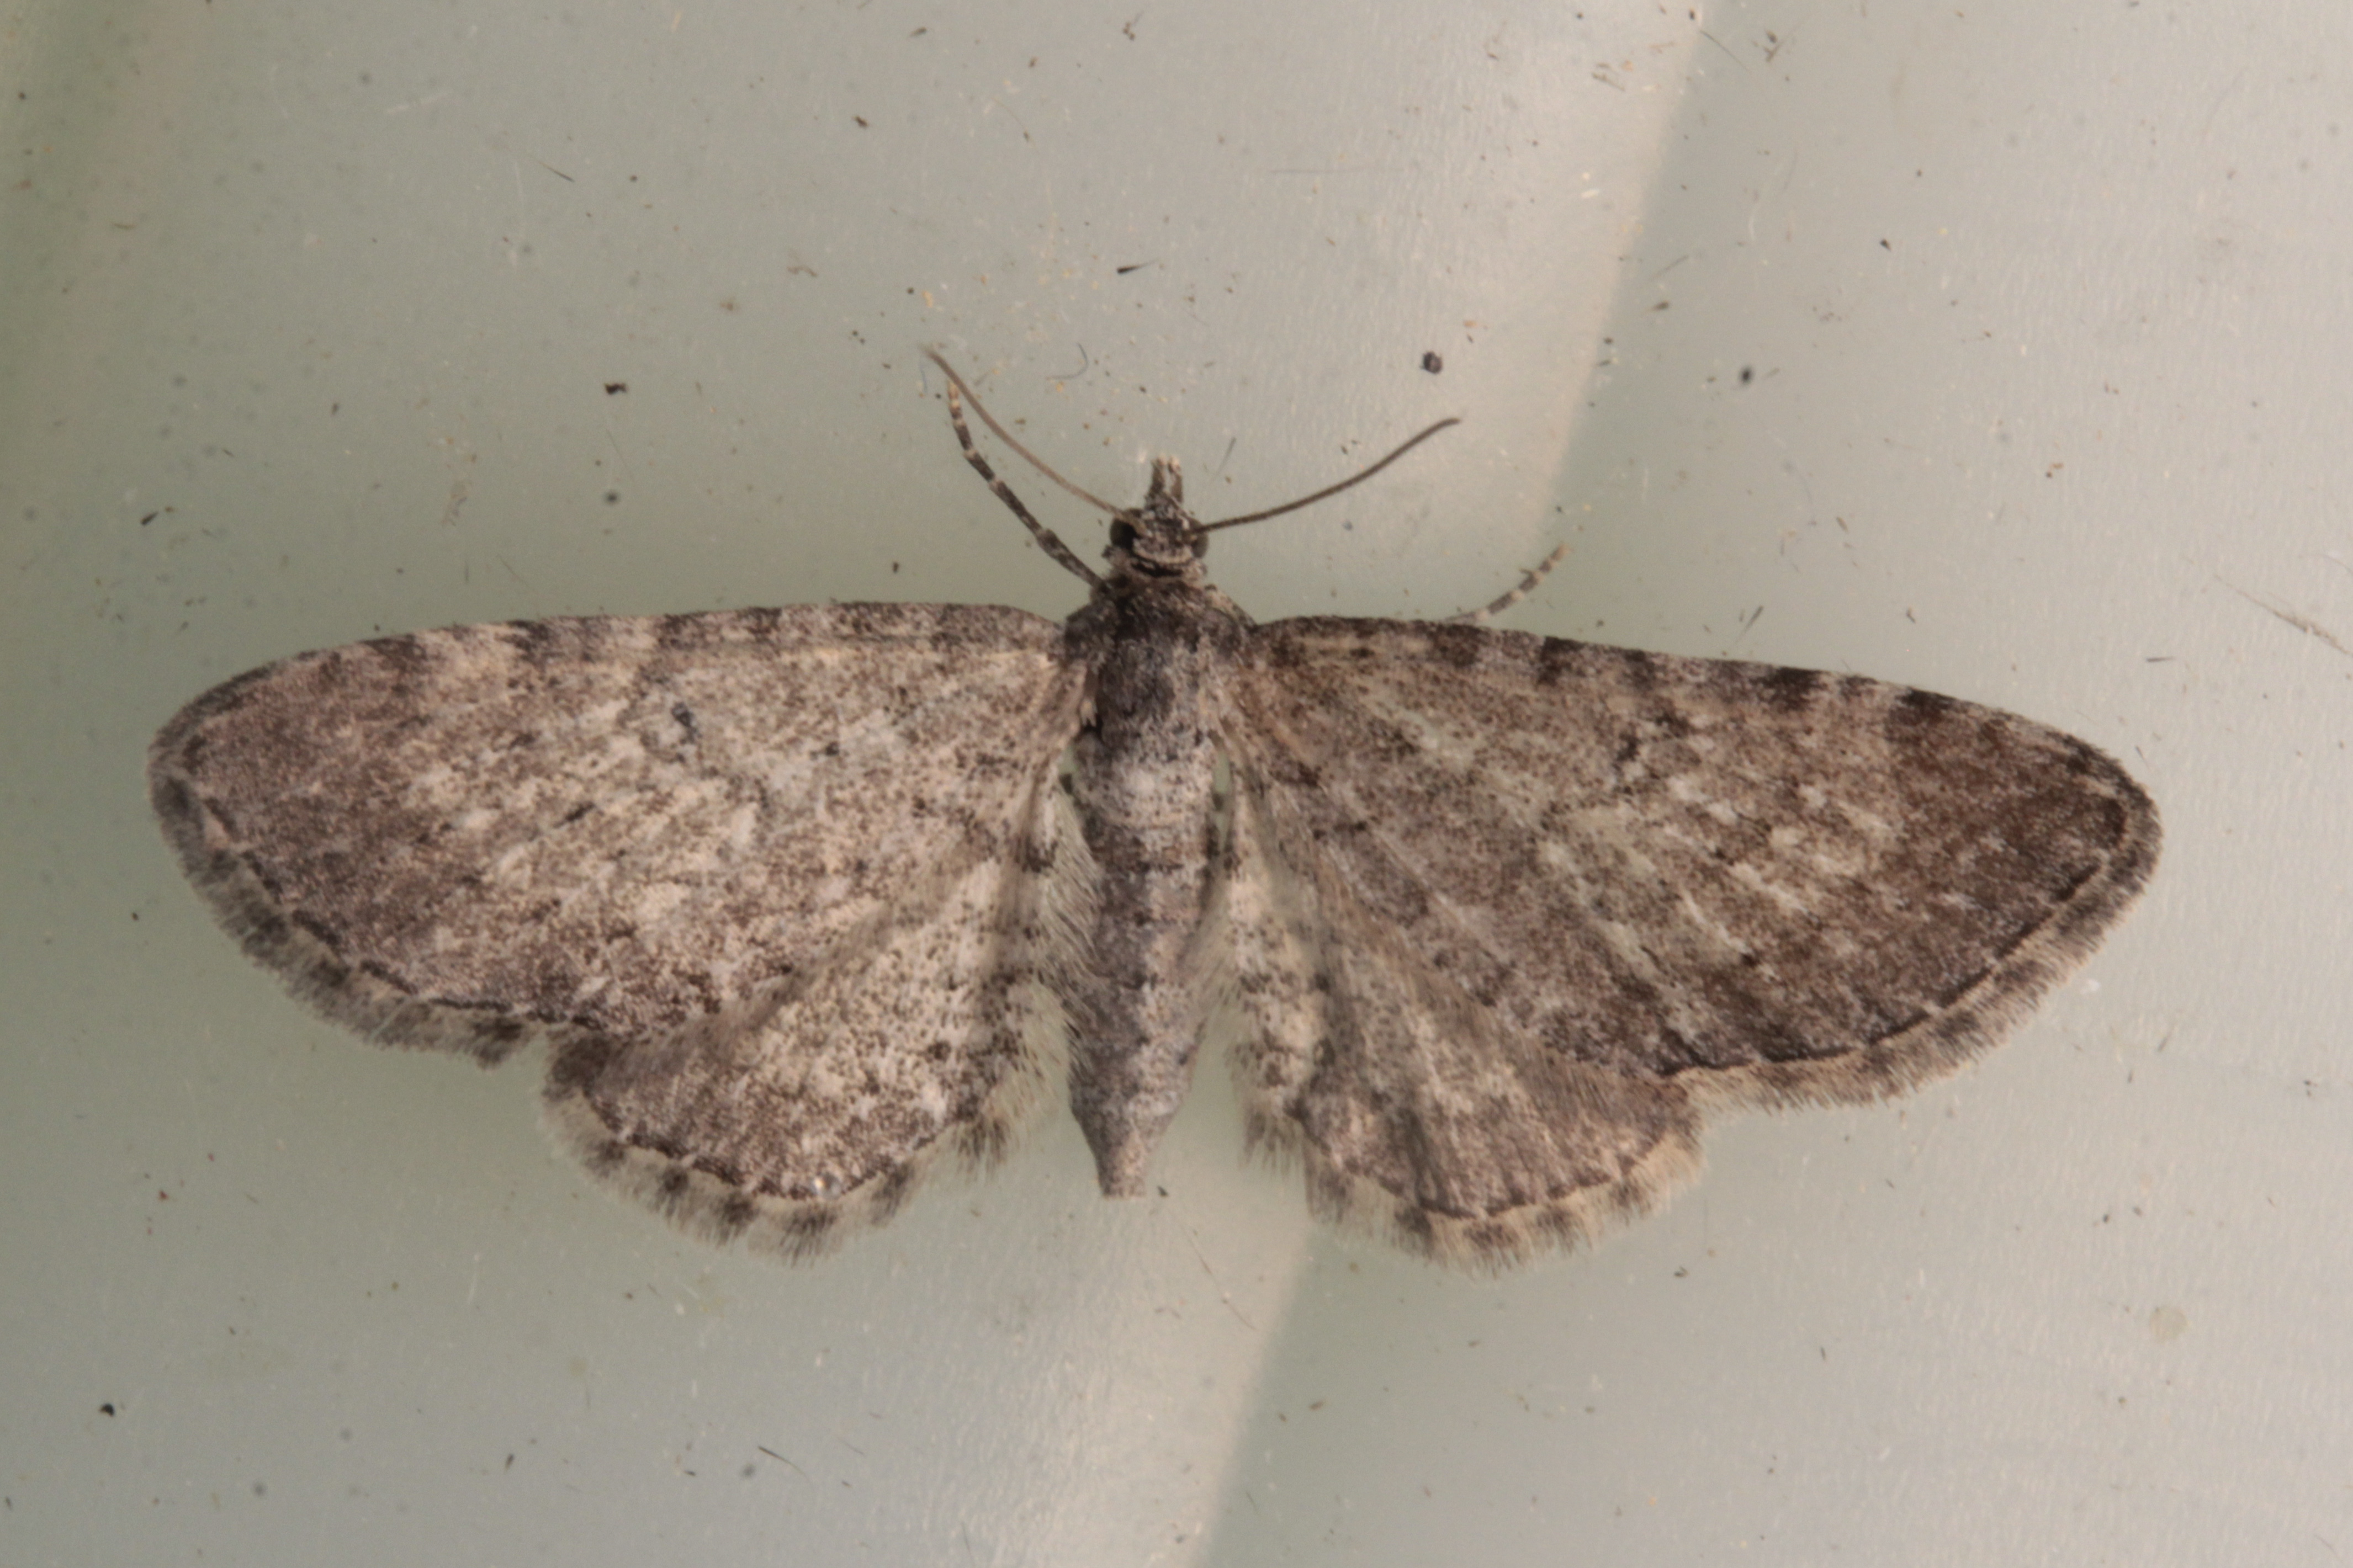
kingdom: Animalia
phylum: Arthropoda
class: Insecta
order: Lepidoptera
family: Geometridae
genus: Eupithecia
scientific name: Eupithecia satyrata
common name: Satyr pug
